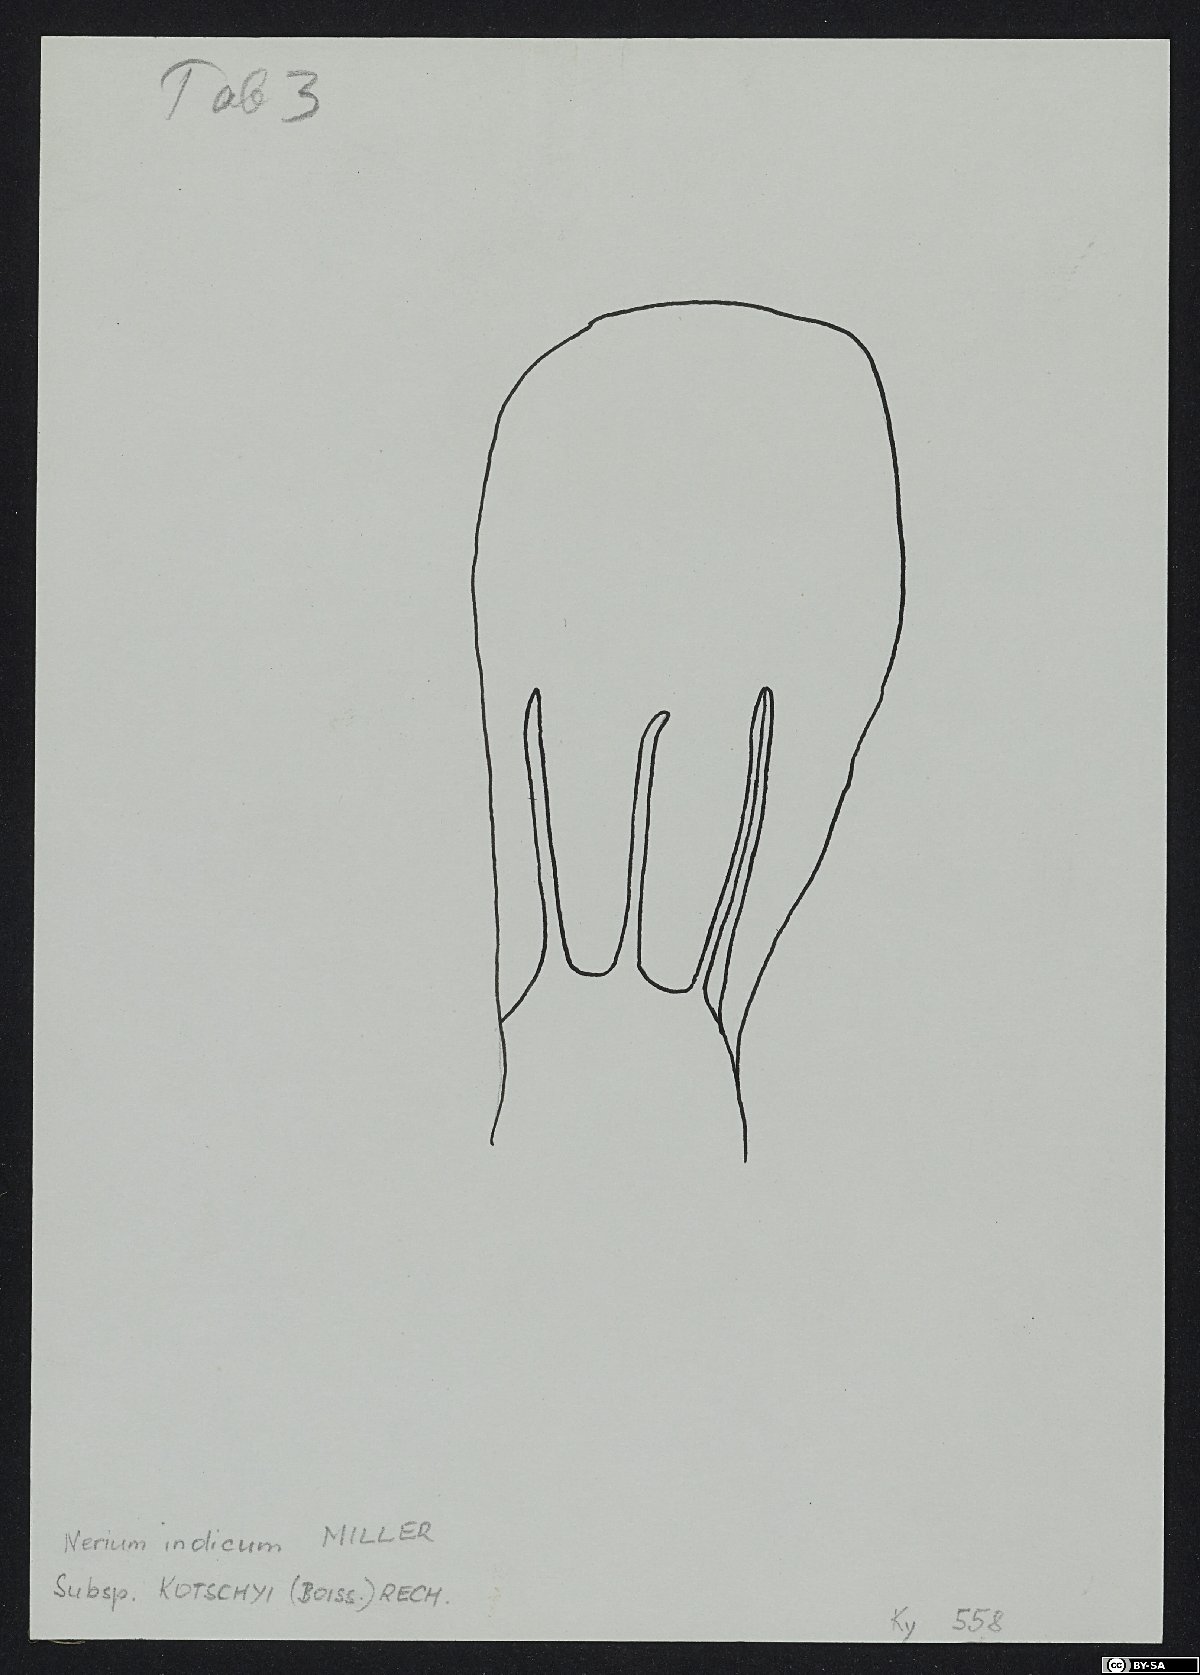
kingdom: Plantae
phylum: Tracheophyta
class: Magnoliopsida
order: Gentianales
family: Apocynaceae
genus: Nerium
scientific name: Nerium oleander
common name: Oleander
